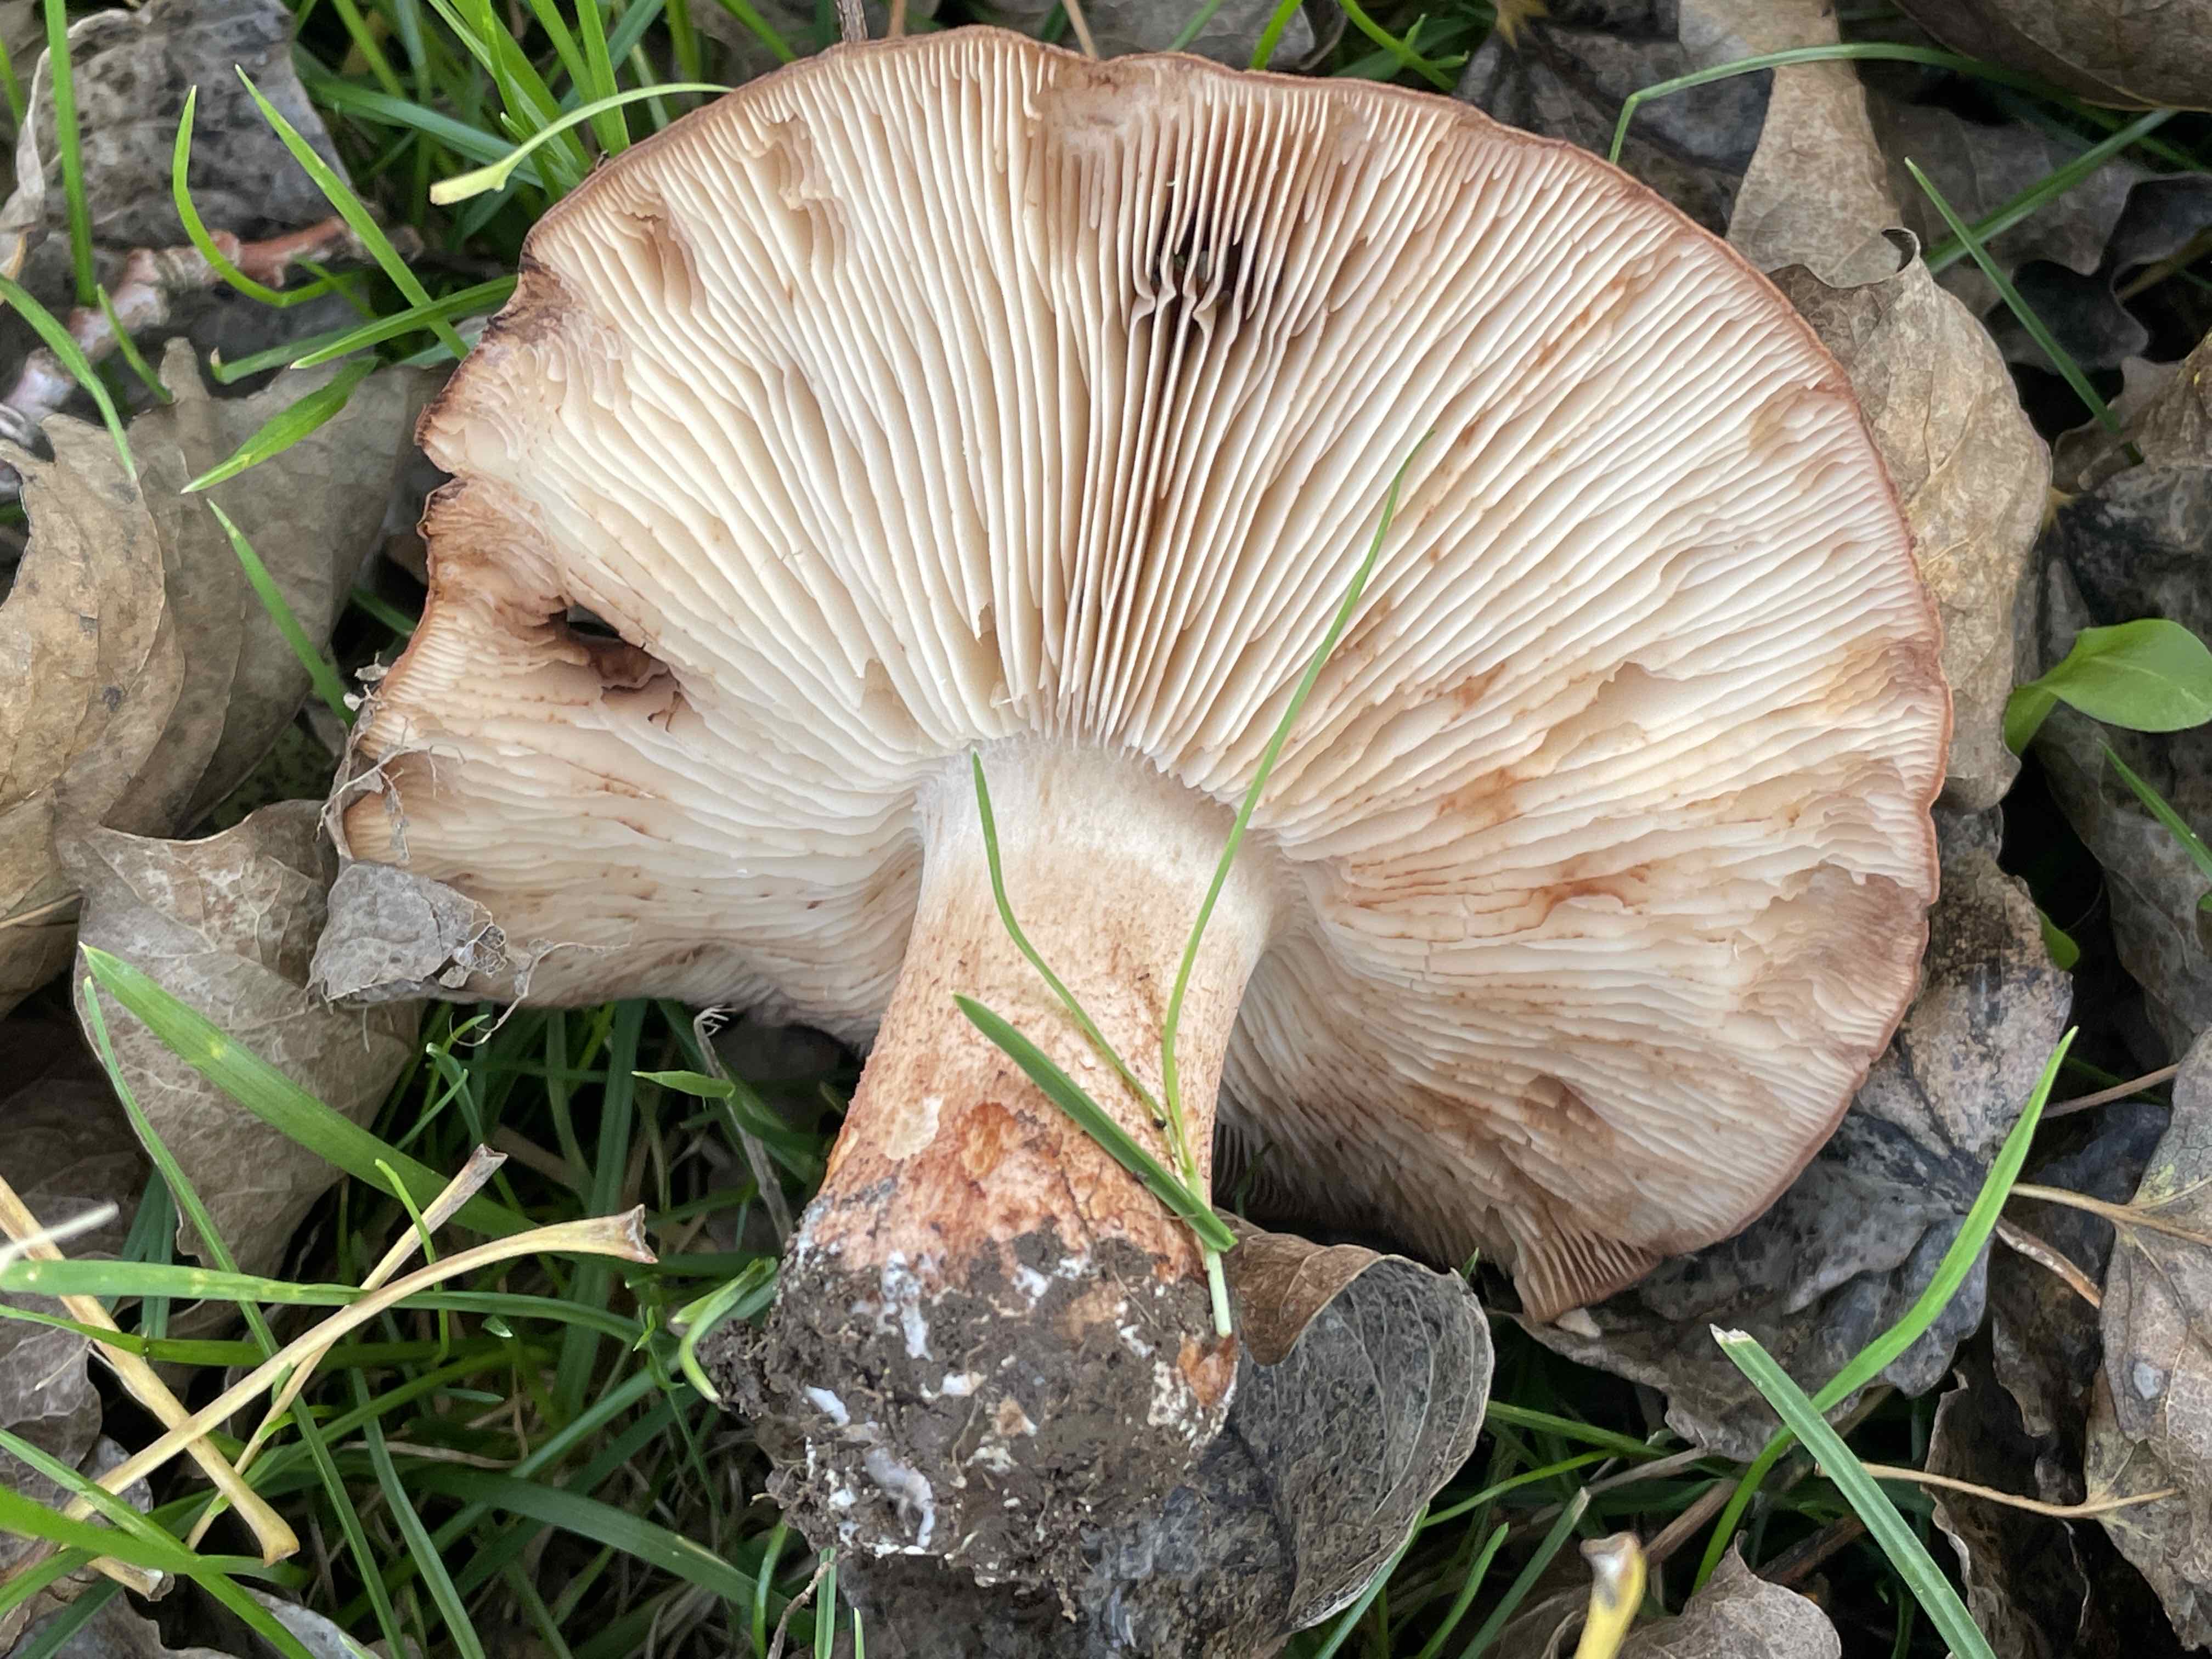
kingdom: Fungi
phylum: Basidiomycota
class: Agaricomycetes
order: Agaricales
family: Tricholomataceae
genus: Tricholoma
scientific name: Tricholoma populinum
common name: poppel-ridderhat
